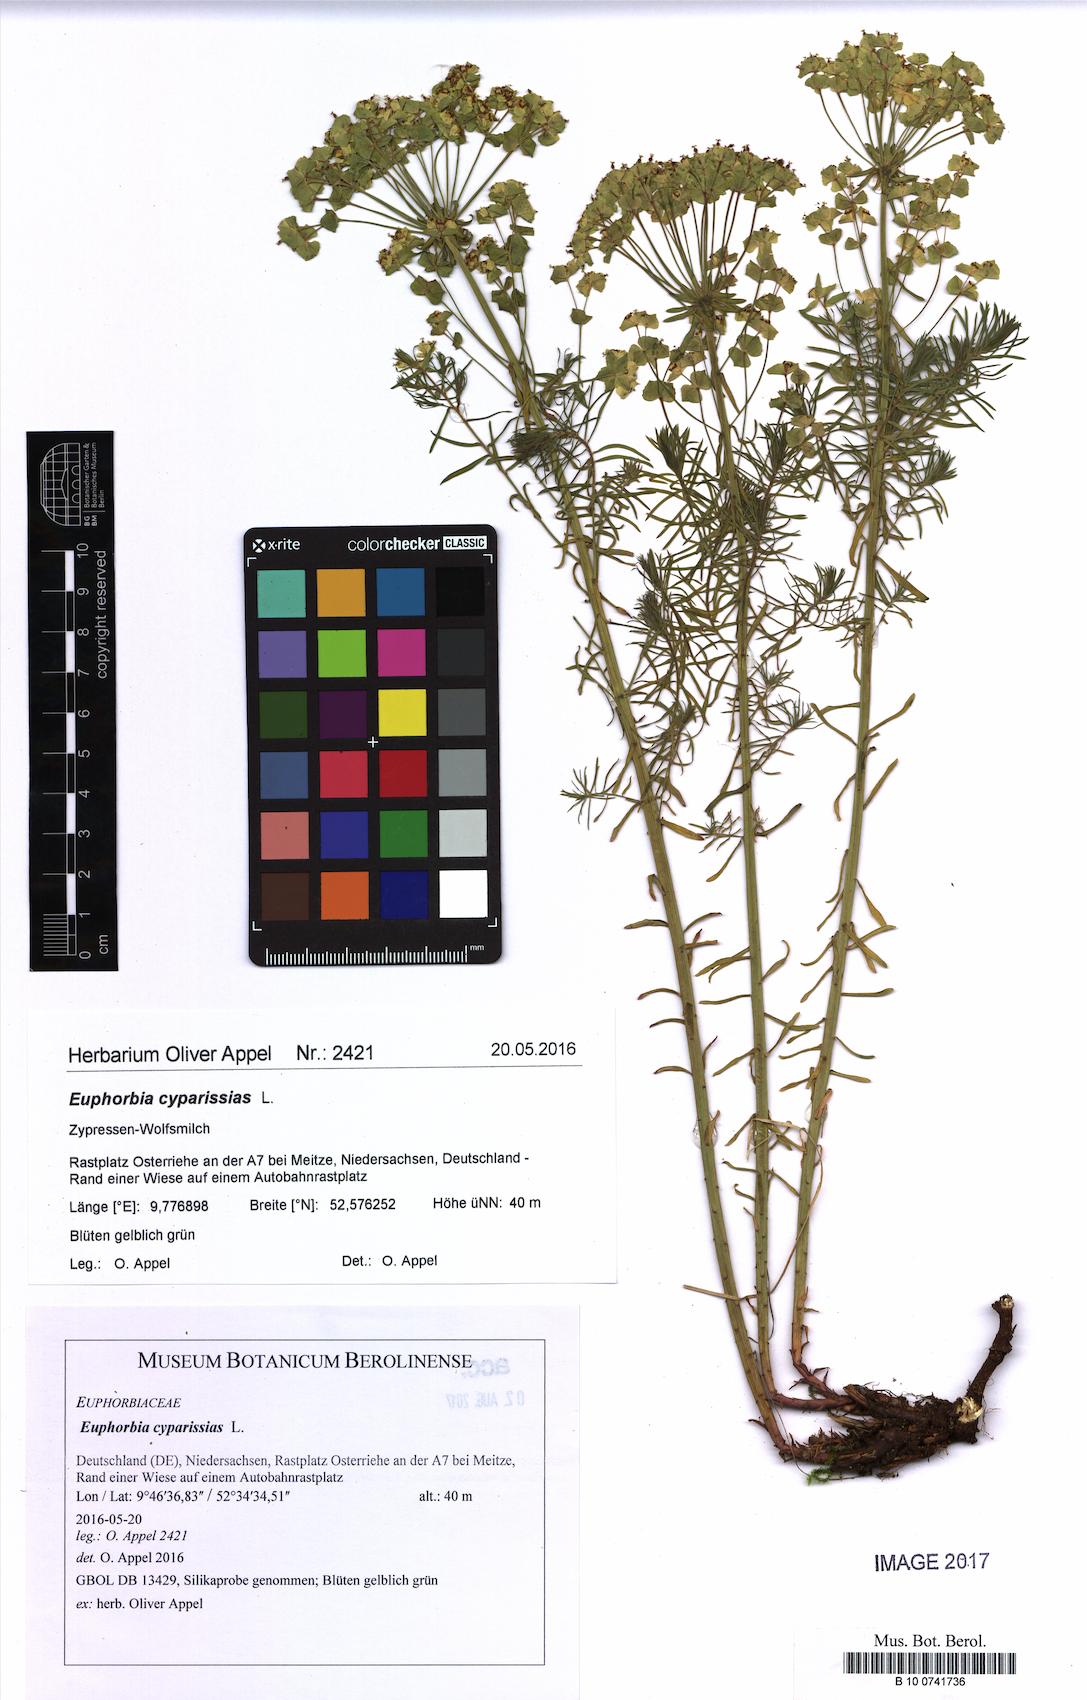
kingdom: Plantae
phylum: Tracheophyta
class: Magnoliopsida
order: Malpighiales
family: Euphorbiaceae
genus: Euphorbia
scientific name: Euphorbia cyparissias
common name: Cypress spurge
